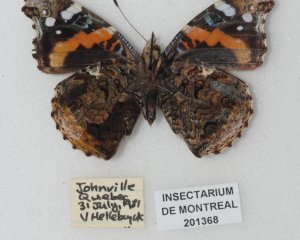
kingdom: Animalia
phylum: Arthropoda
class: Insecta
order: Lepidoptera
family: Nymphalidae
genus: Vanessa
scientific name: Vanessa atalanta
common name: Red Admiral
